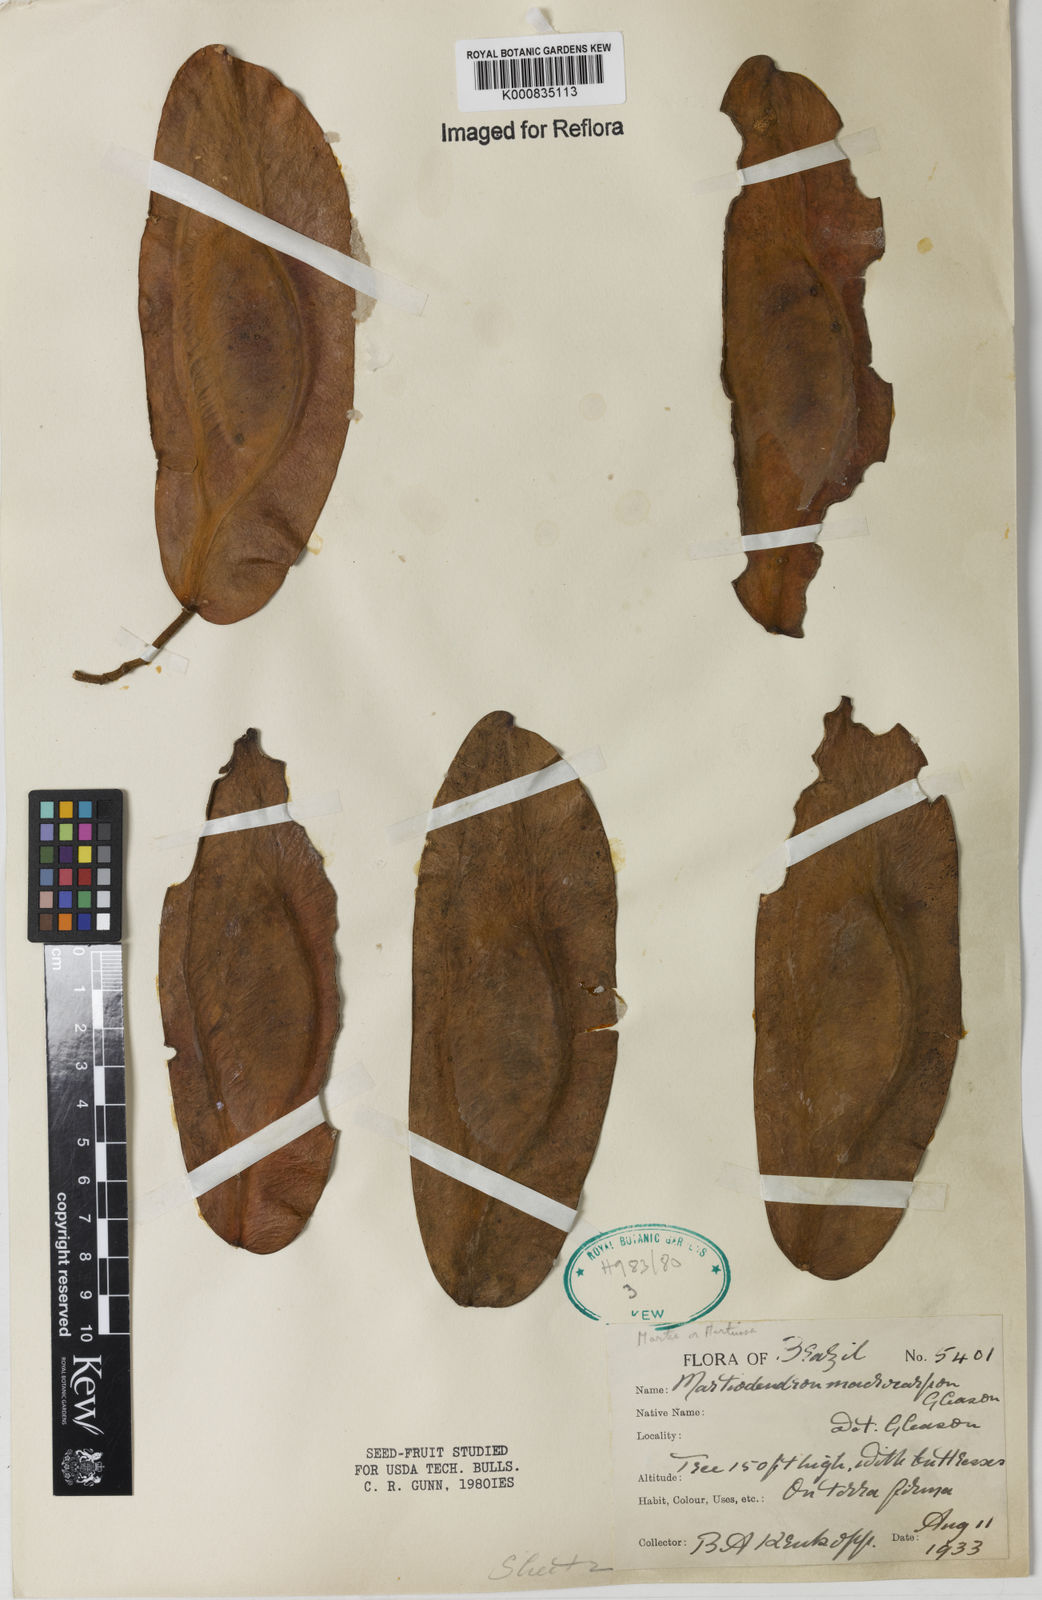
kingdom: Plantae
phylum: Tracheophyta
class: Magnoliopsida
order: Fabales
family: Fabaceae
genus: Martiodendron
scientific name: Martiodendron elatum
